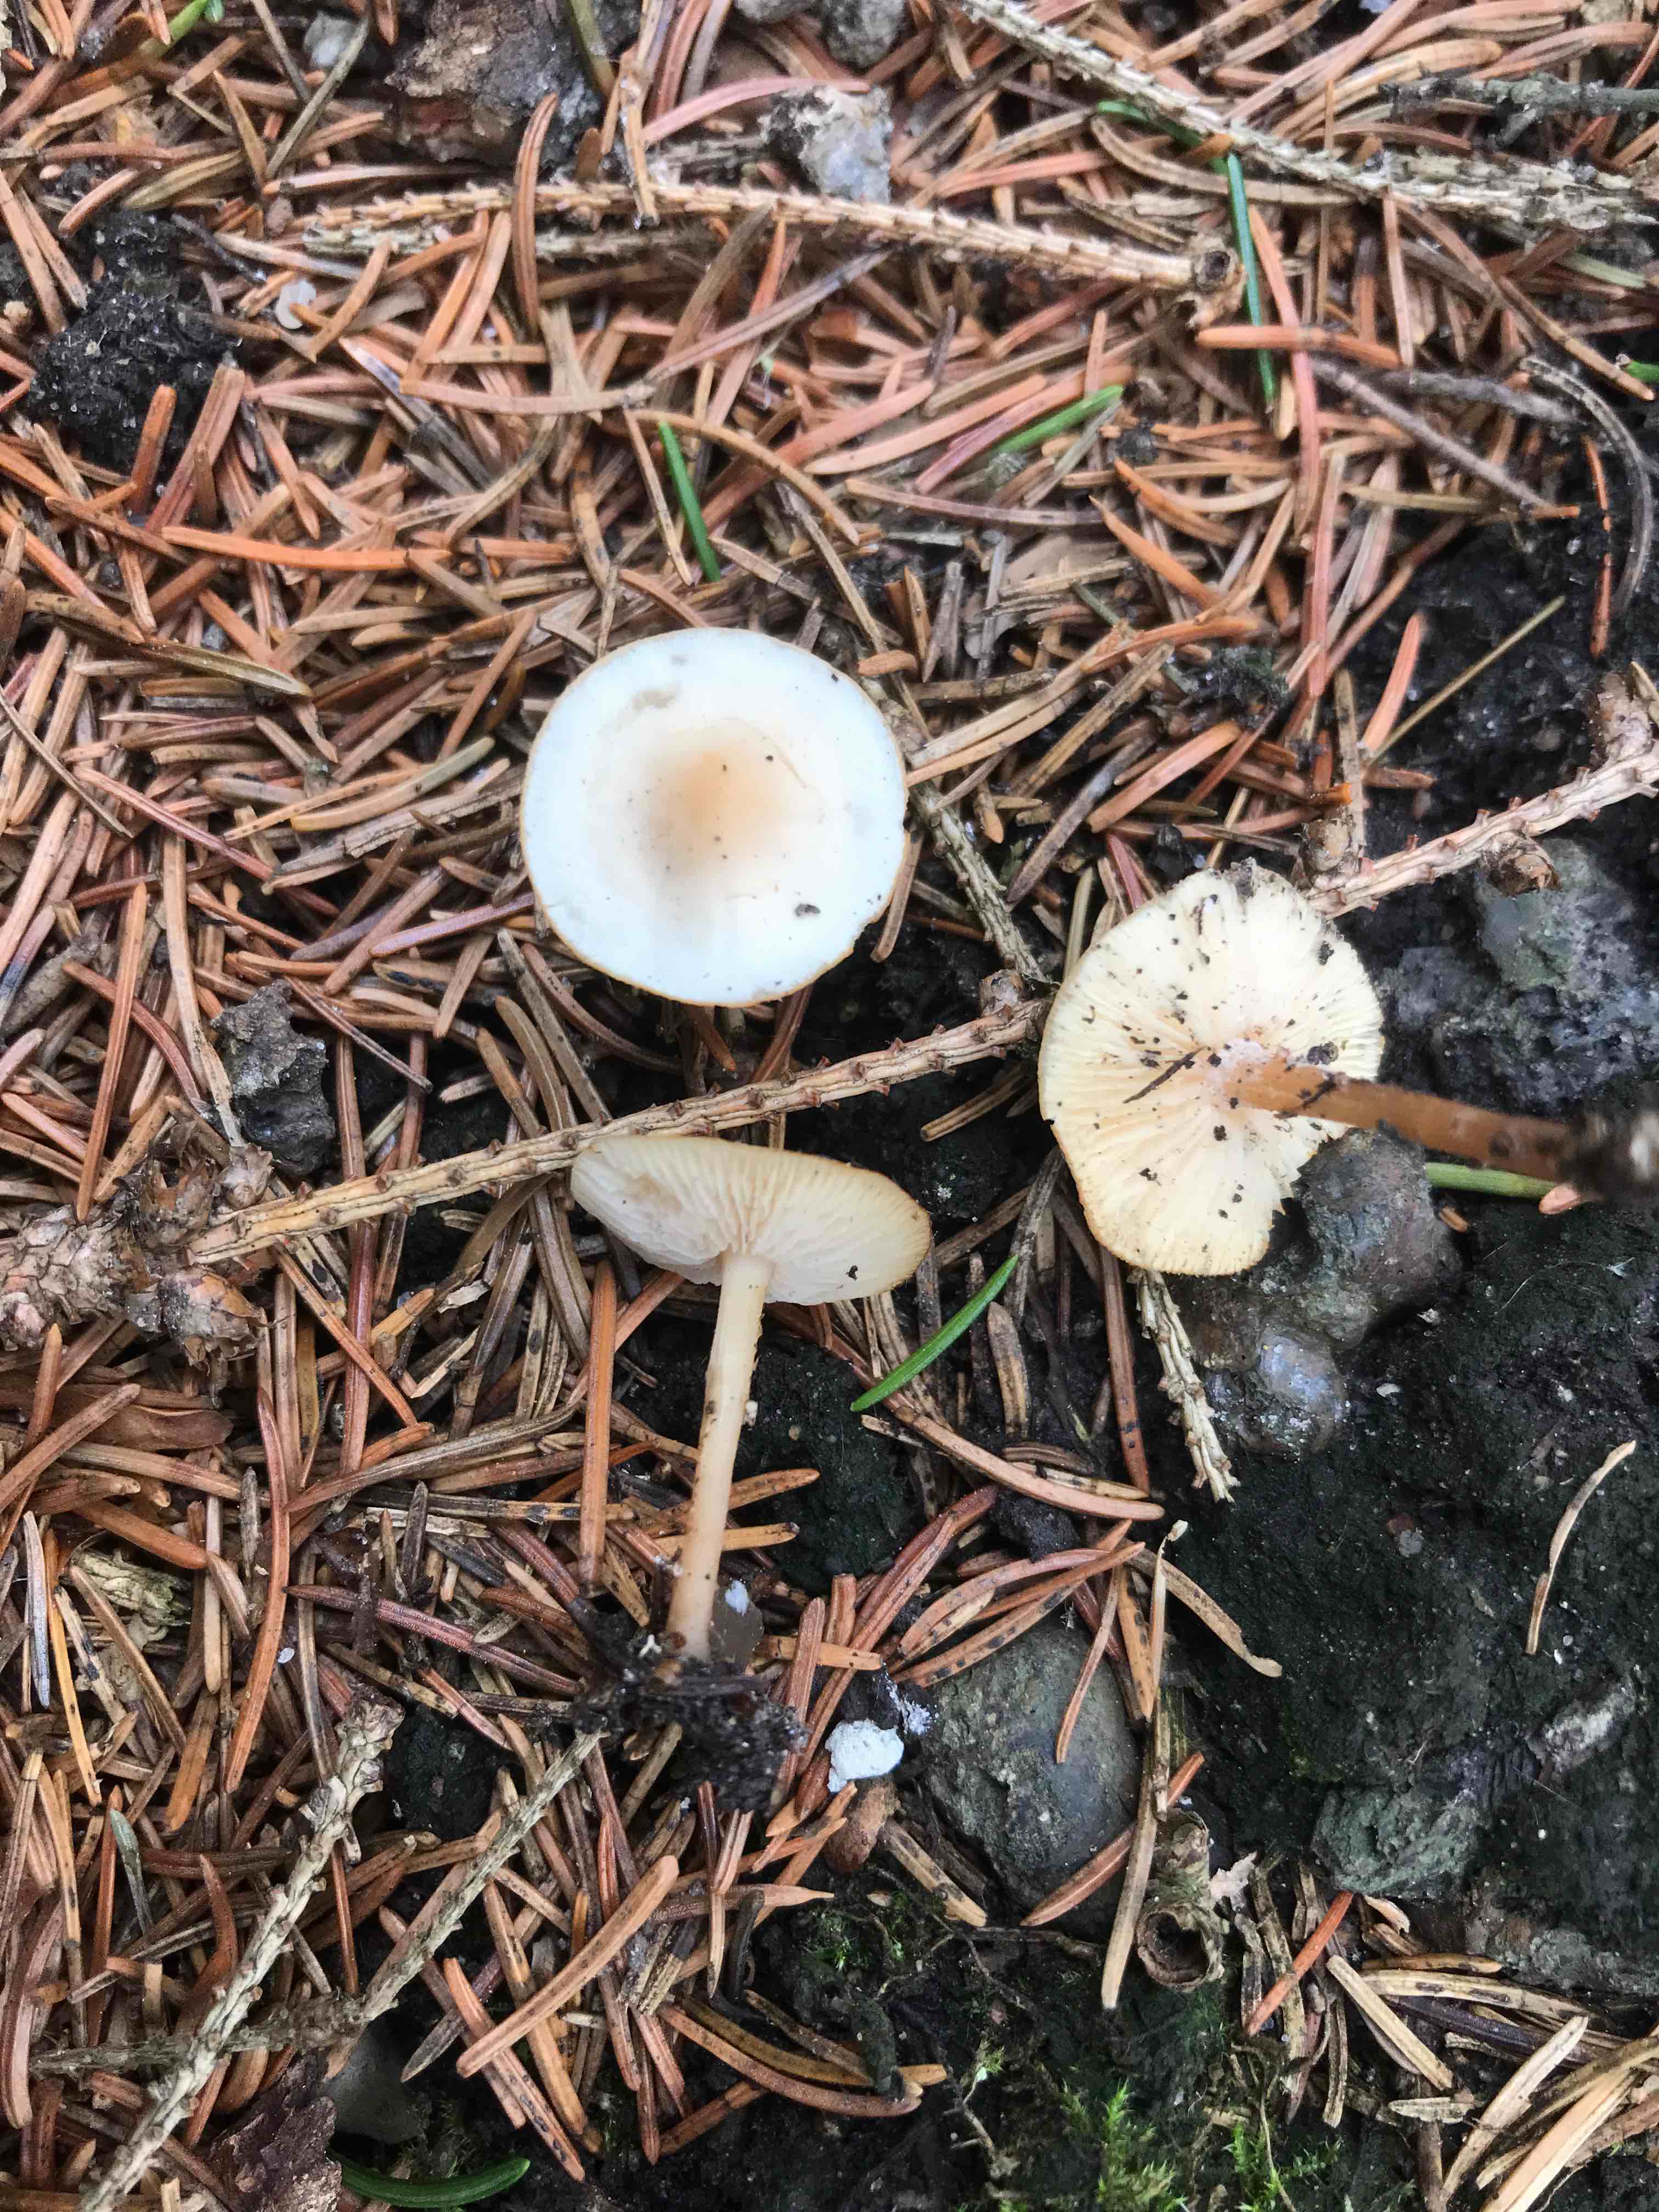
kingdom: Fungi
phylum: Basidiomycota
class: Agaricomycetes
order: Agaricales
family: Tricholomataceae
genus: Clitocybe
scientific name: Clitocybe fragrans
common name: vellugtende tragthat
